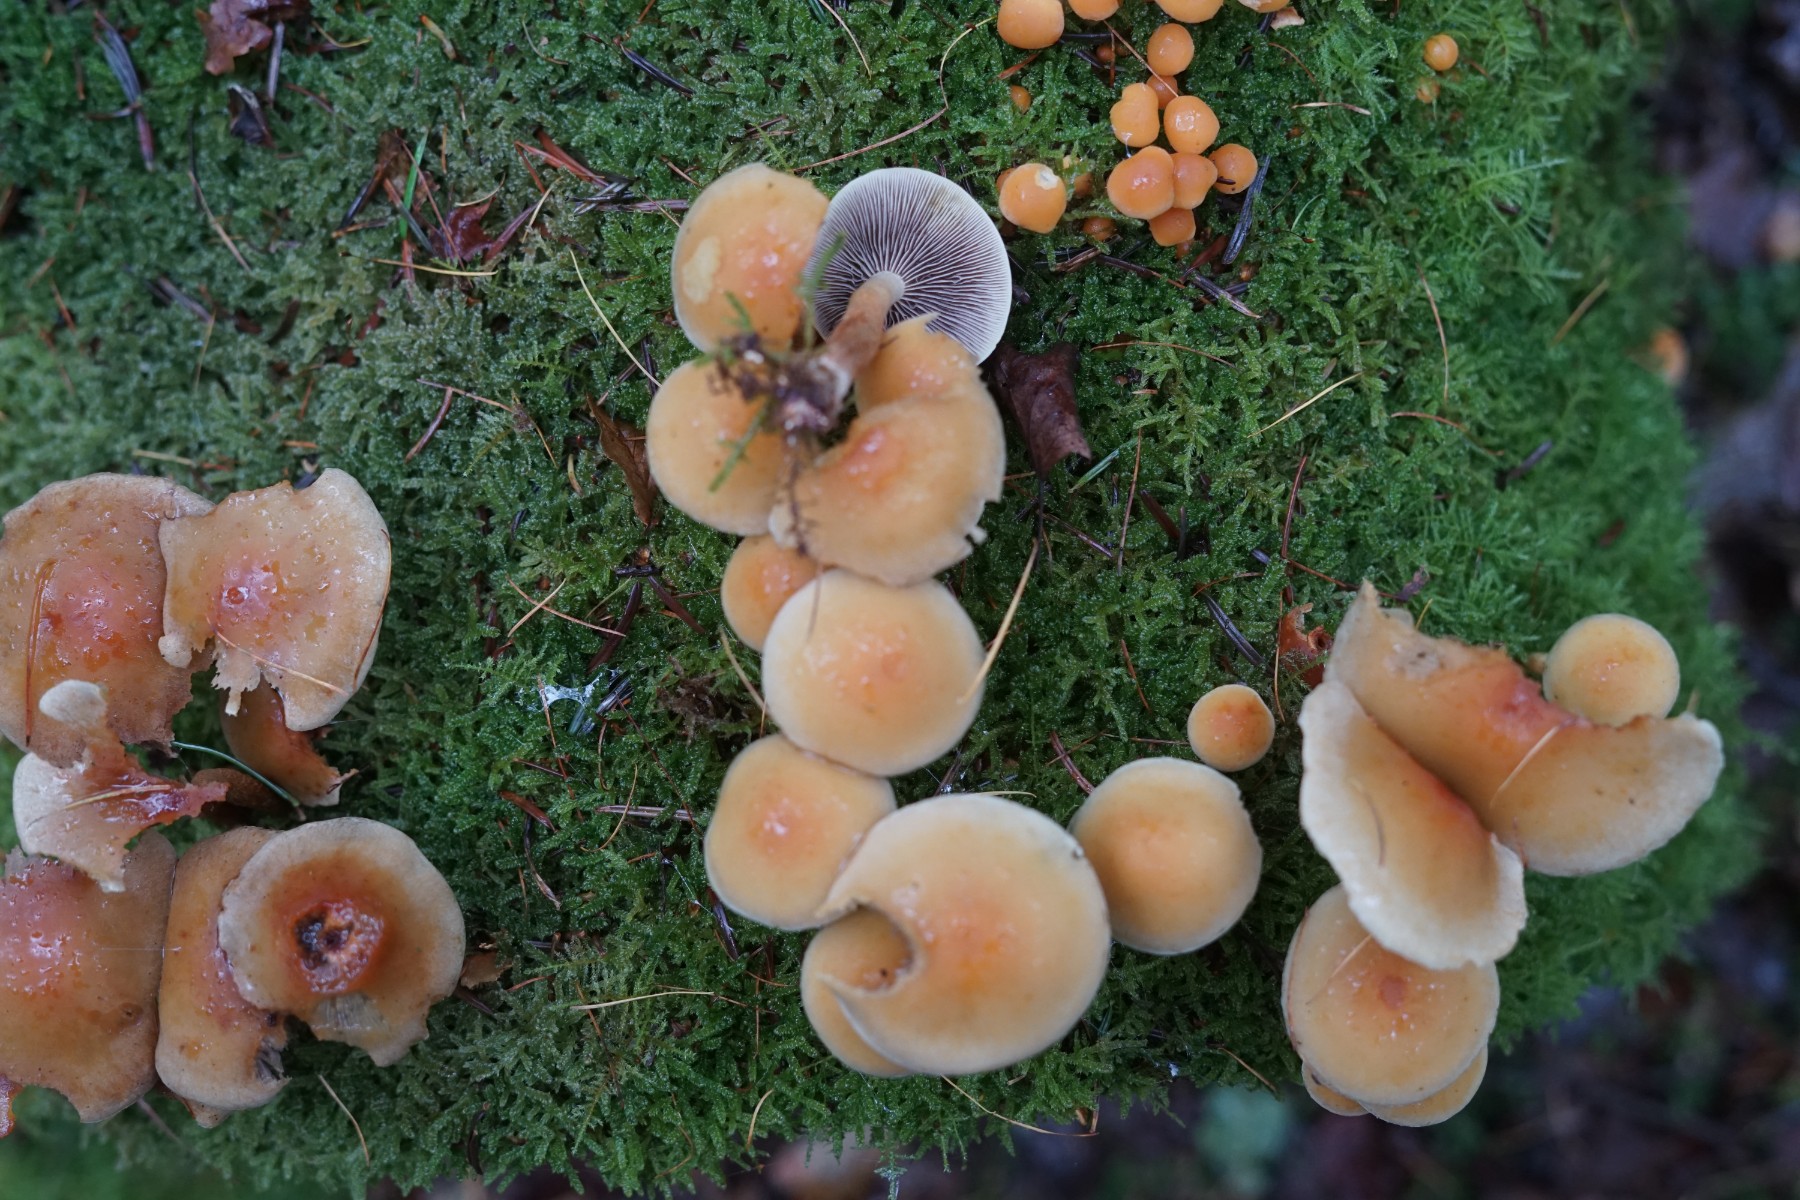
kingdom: Fungi
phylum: Basidiomycota
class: Agaricomycetes
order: Agaricales
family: Strophariaceae
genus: Hypholoma
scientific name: Hypholoma lateritium
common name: teglrød svovlhat
